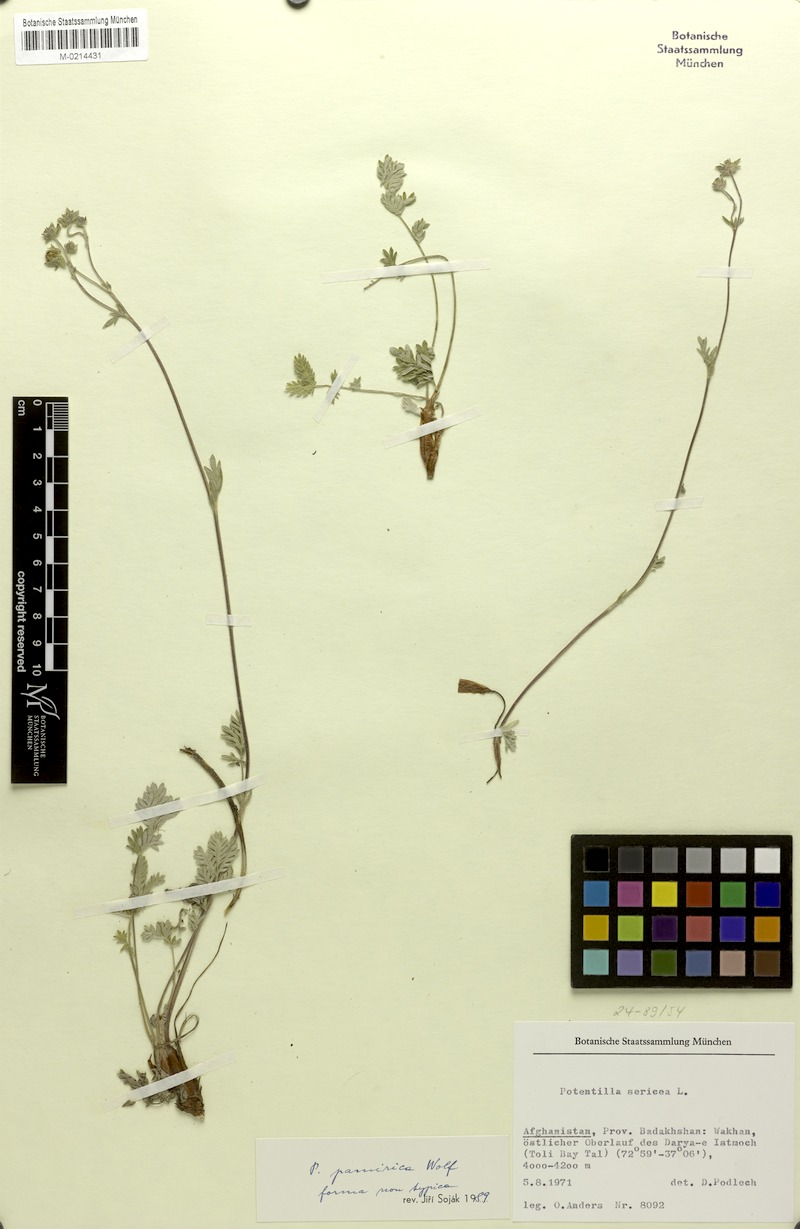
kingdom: Plantae
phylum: Tracheophyta
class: Magnoliopsida
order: Rosales
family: Rosaceae
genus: Potentilla
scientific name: Potentilla pamirica
